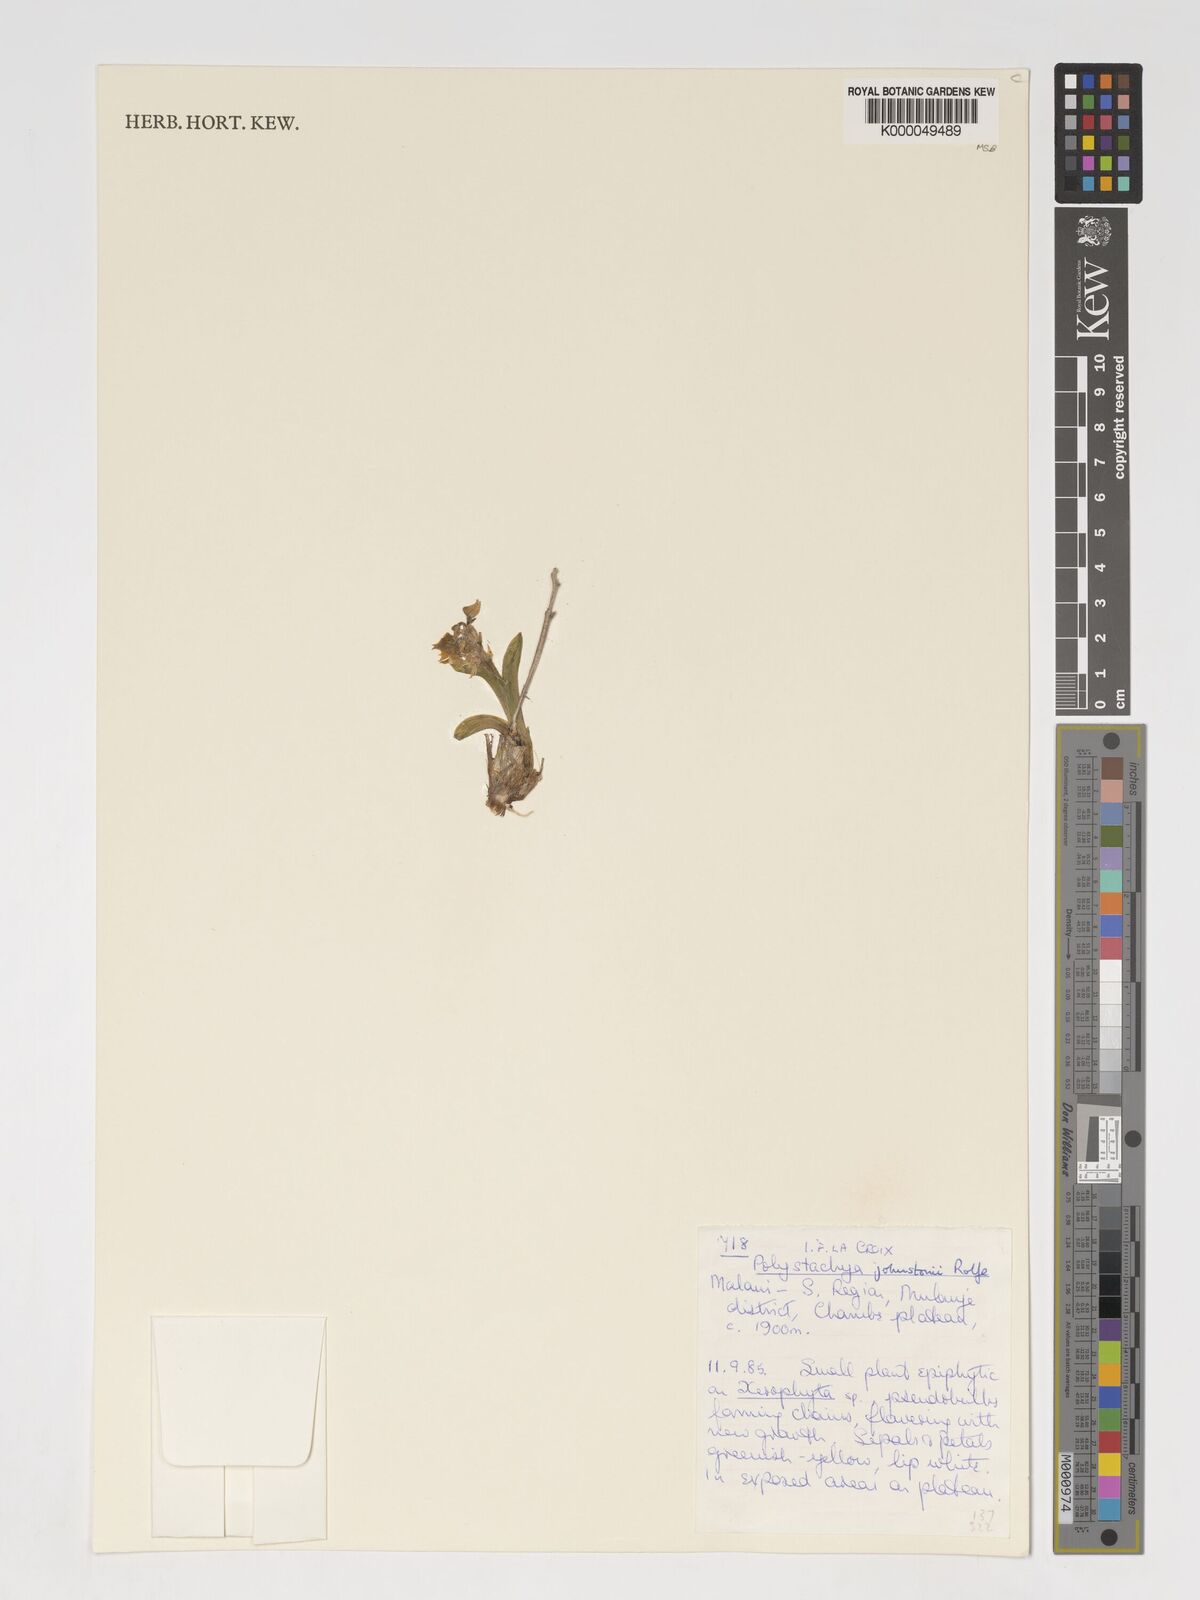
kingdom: Plantae
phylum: Tracheophyta
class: Liliopsida
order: Asparagales
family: Orchidaceae
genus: Polystachya
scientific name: Polystachya johnstonii
